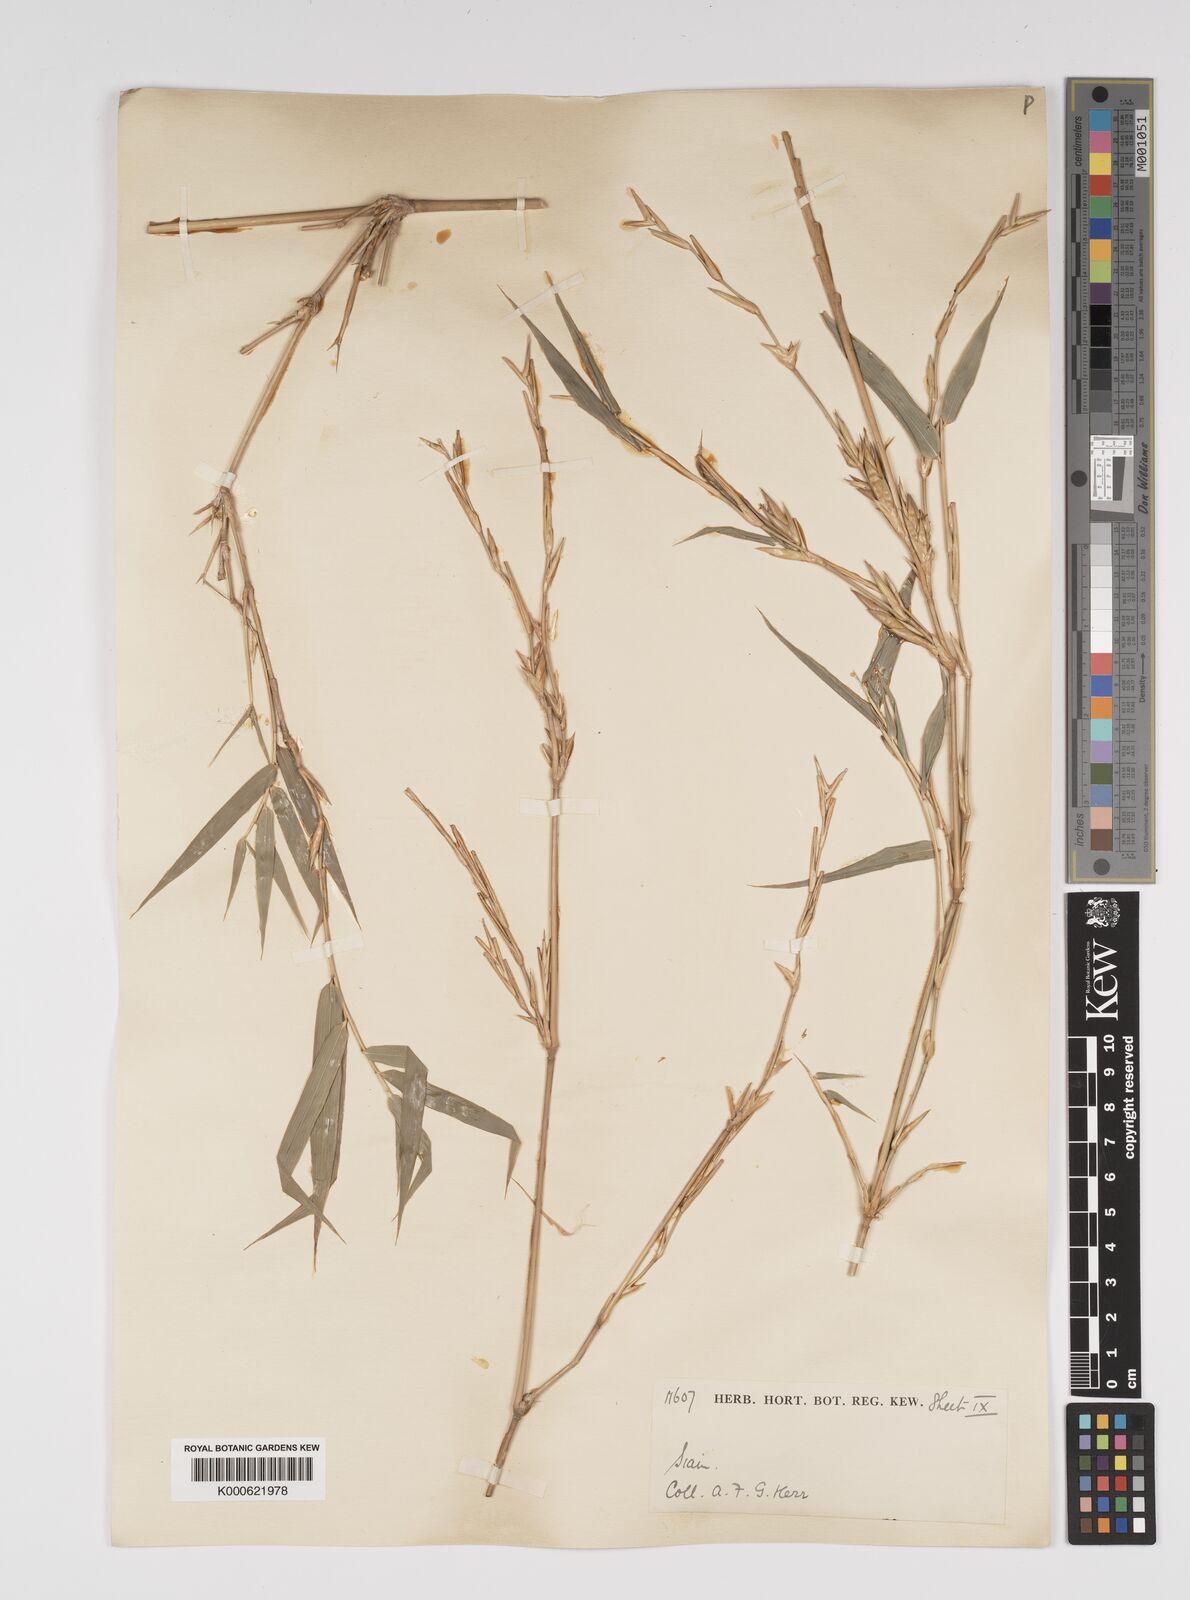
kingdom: Plantae
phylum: Tracheophyta
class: Liliopsida
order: Poales
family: Poaceae
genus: Bambusa
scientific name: Bambusa
